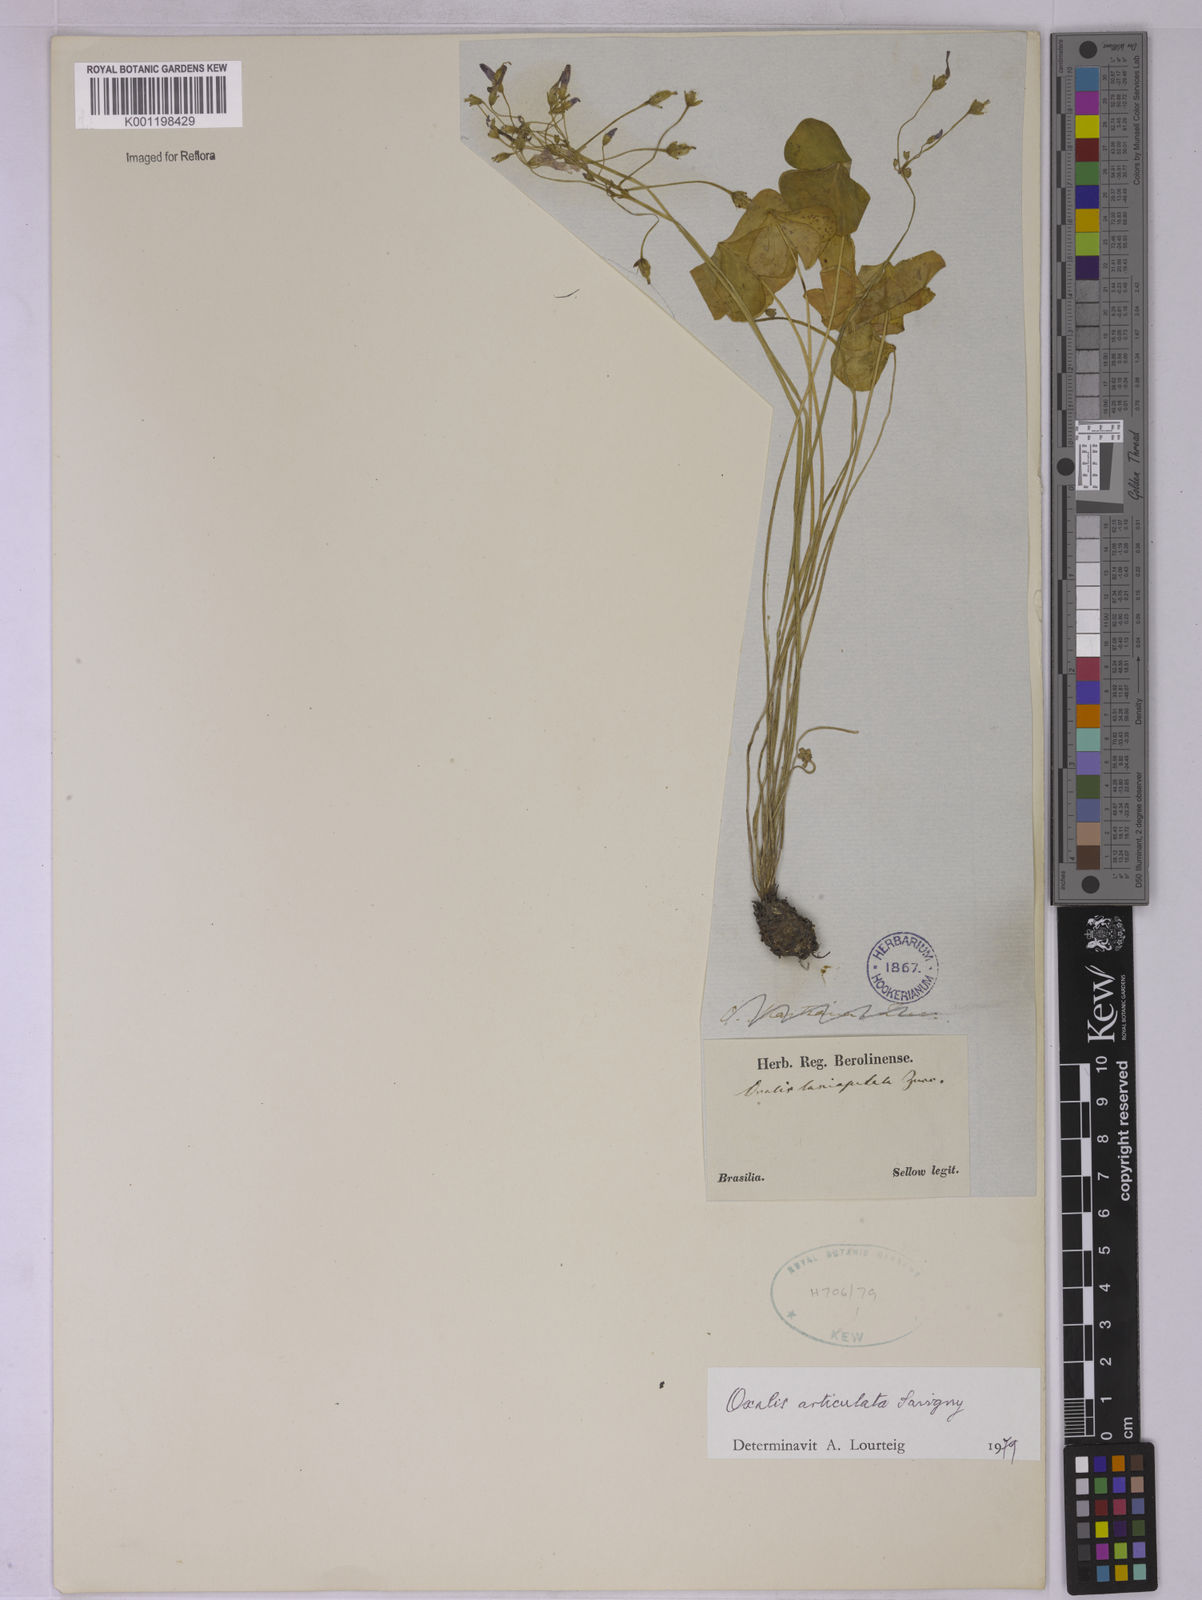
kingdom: Plantae
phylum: Tracheophyta
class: Magnoliopsida
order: Oxalidales
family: Oxalidaceae
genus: Oxalis
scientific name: Oxalis articulata
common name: Pink-sorrel
